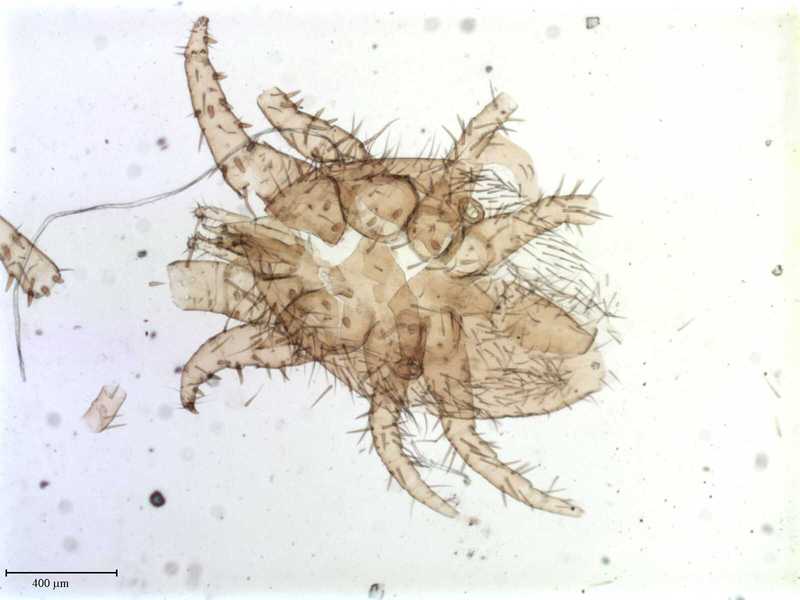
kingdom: Animalia
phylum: Arthropoda
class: Arachnida
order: Mesostigmata
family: Laelapidae
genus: Dinogamasus
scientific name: Dinogamasus
